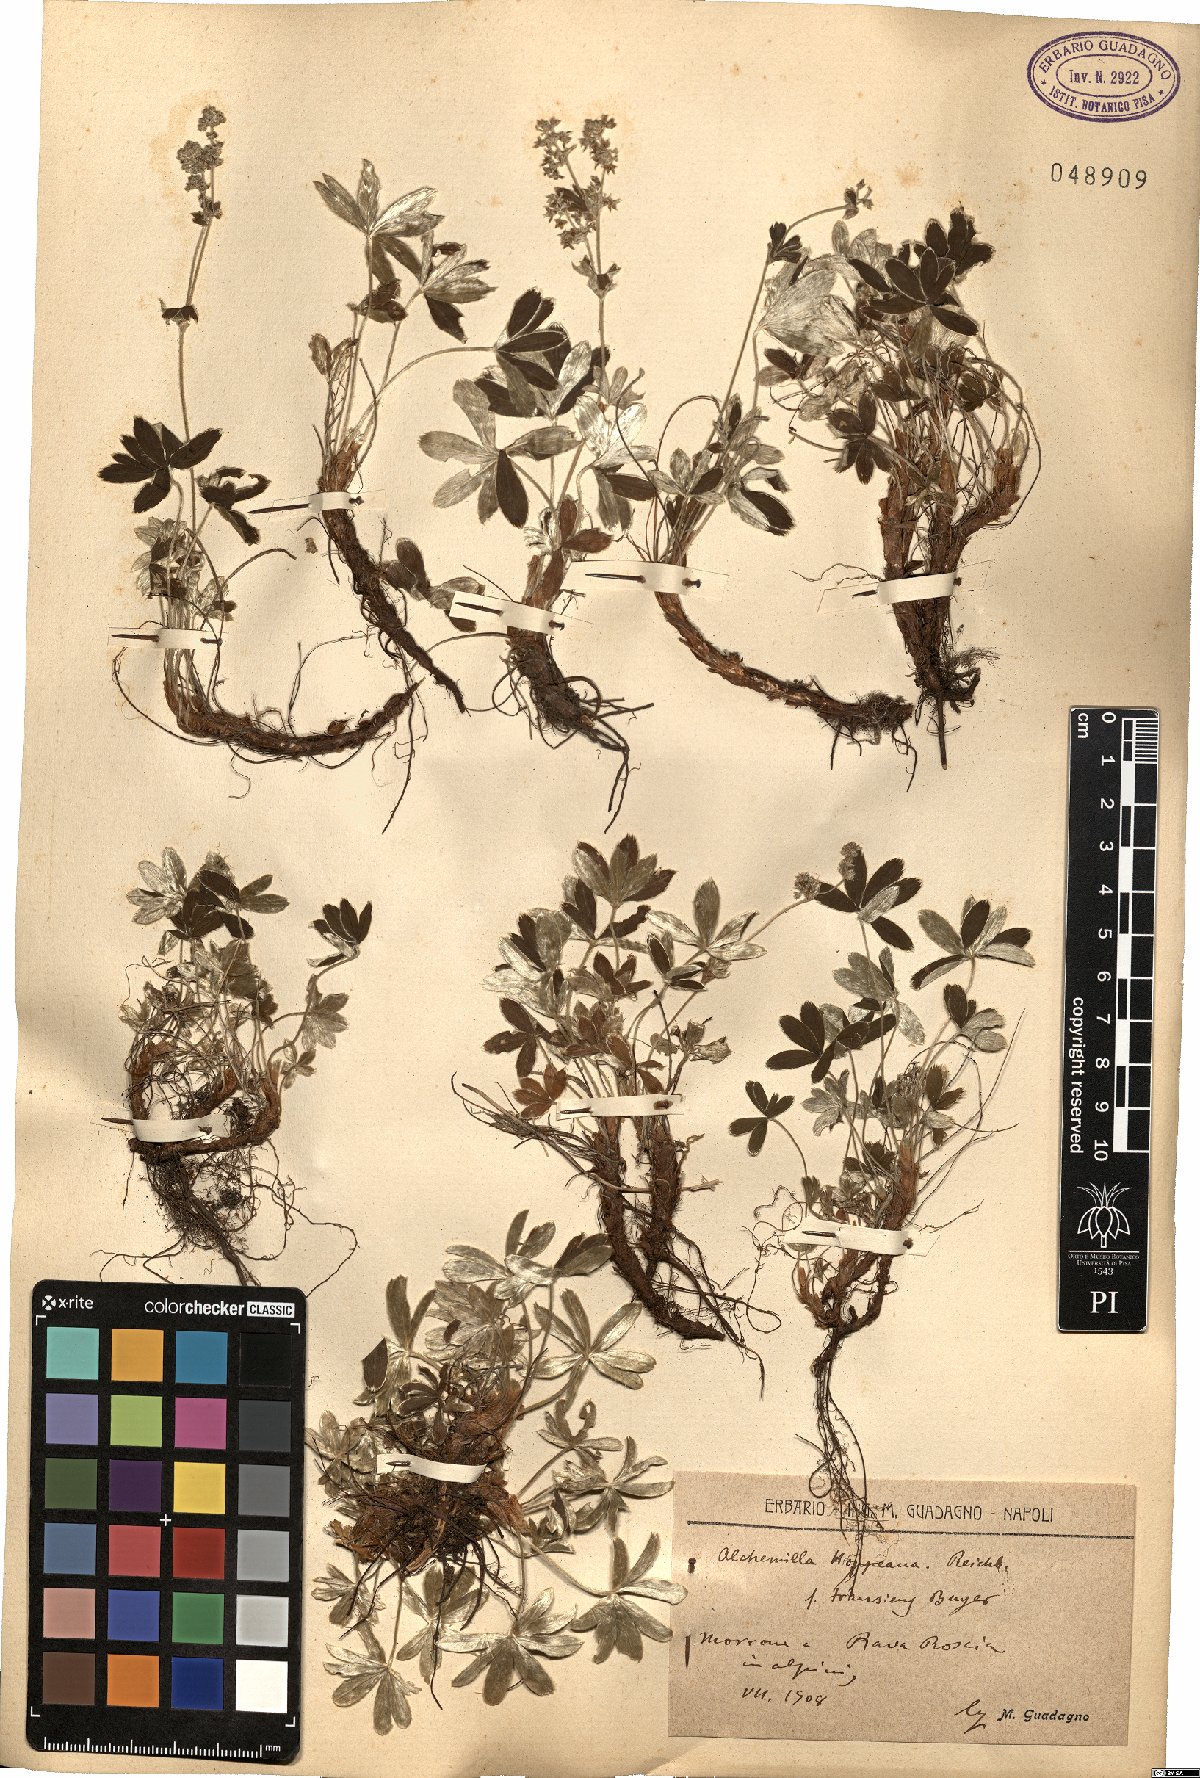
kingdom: Plantae
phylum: Tracheophyta
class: Magnoliopsida
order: Rosales
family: Rosaceae
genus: Alchemilla
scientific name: Alchemilla nitida
